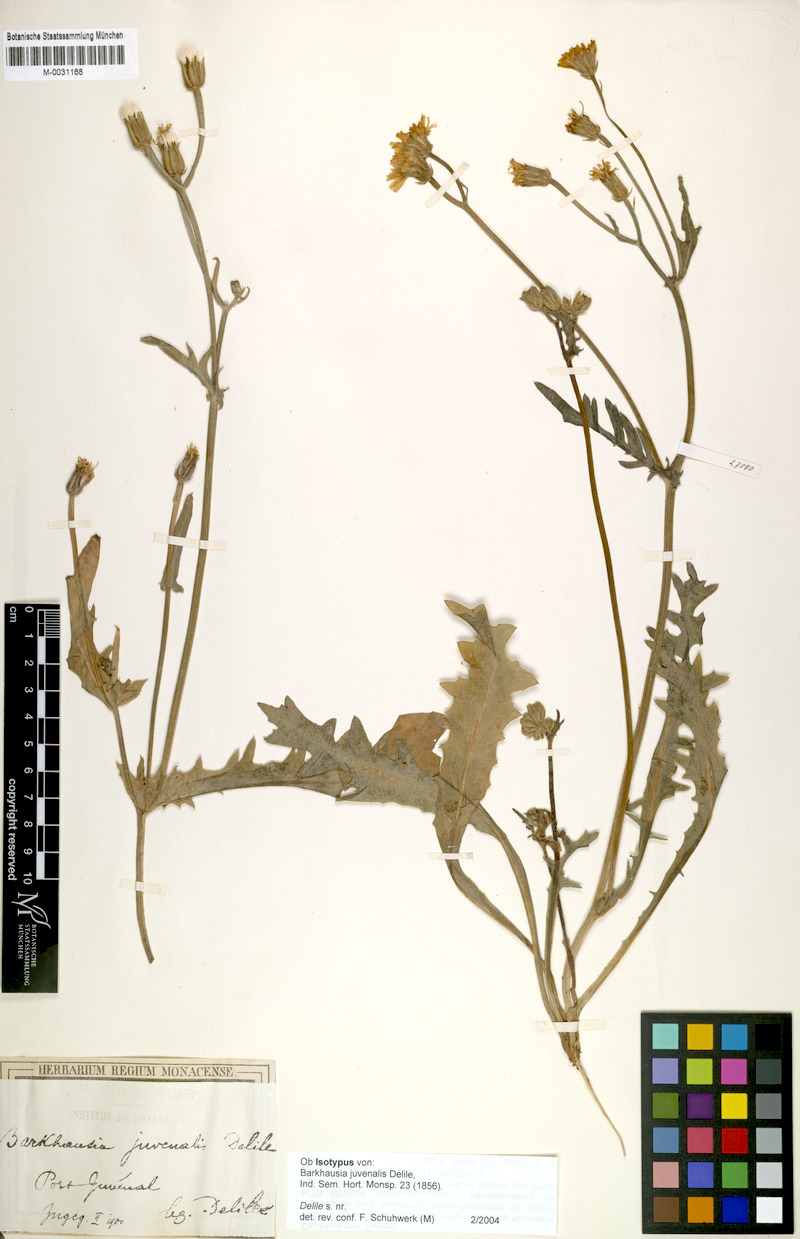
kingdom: Plantae
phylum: Tracheophyta
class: Magnoliopsida
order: Asterales
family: Asteraceae
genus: Crepis
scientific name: Crepis juvenalis
